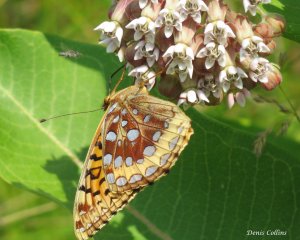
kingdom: Animalia
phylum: Arthropoda
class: Insecta
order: Lepidoptera
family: Nymphalidae
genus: Speyeria
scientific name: Speyeria cybele
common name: Great Spangled Fritillary
